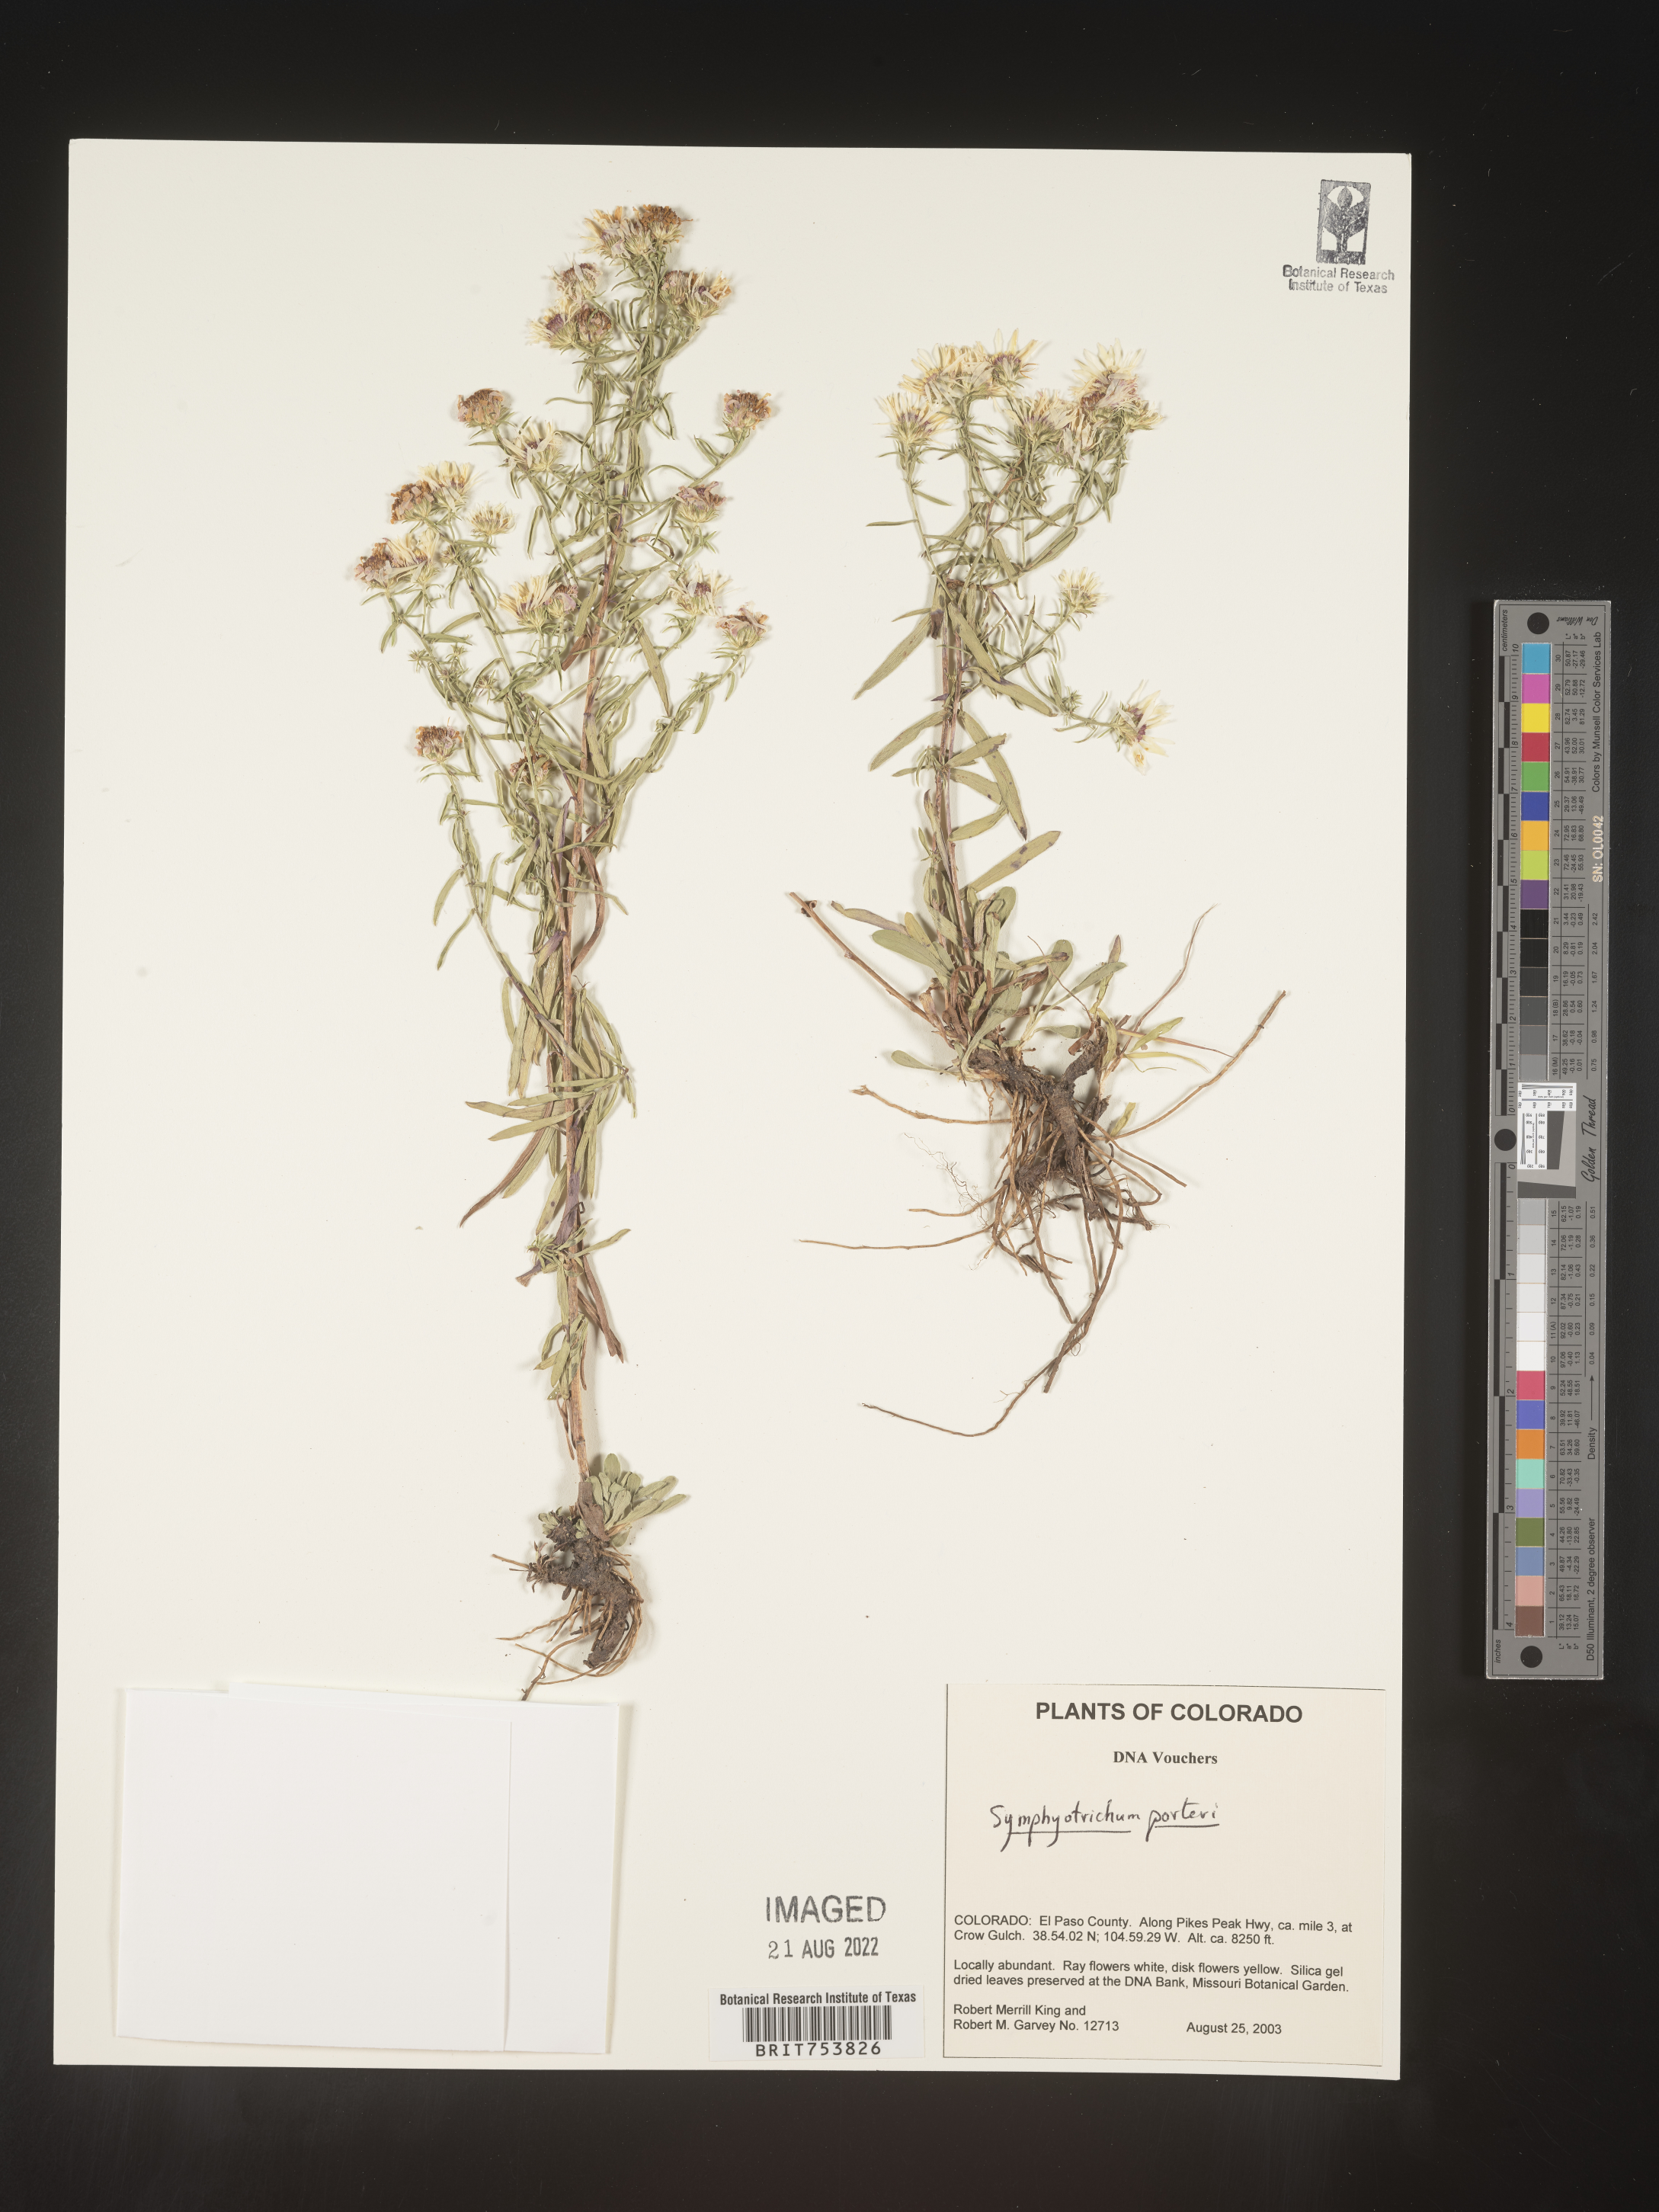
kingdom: Plantae
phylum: Tracheophyta
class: Magnoliopsida
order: Asterales
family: Asteraceae
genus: Symphyotrichum
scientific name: Symphyotrichum porteri
